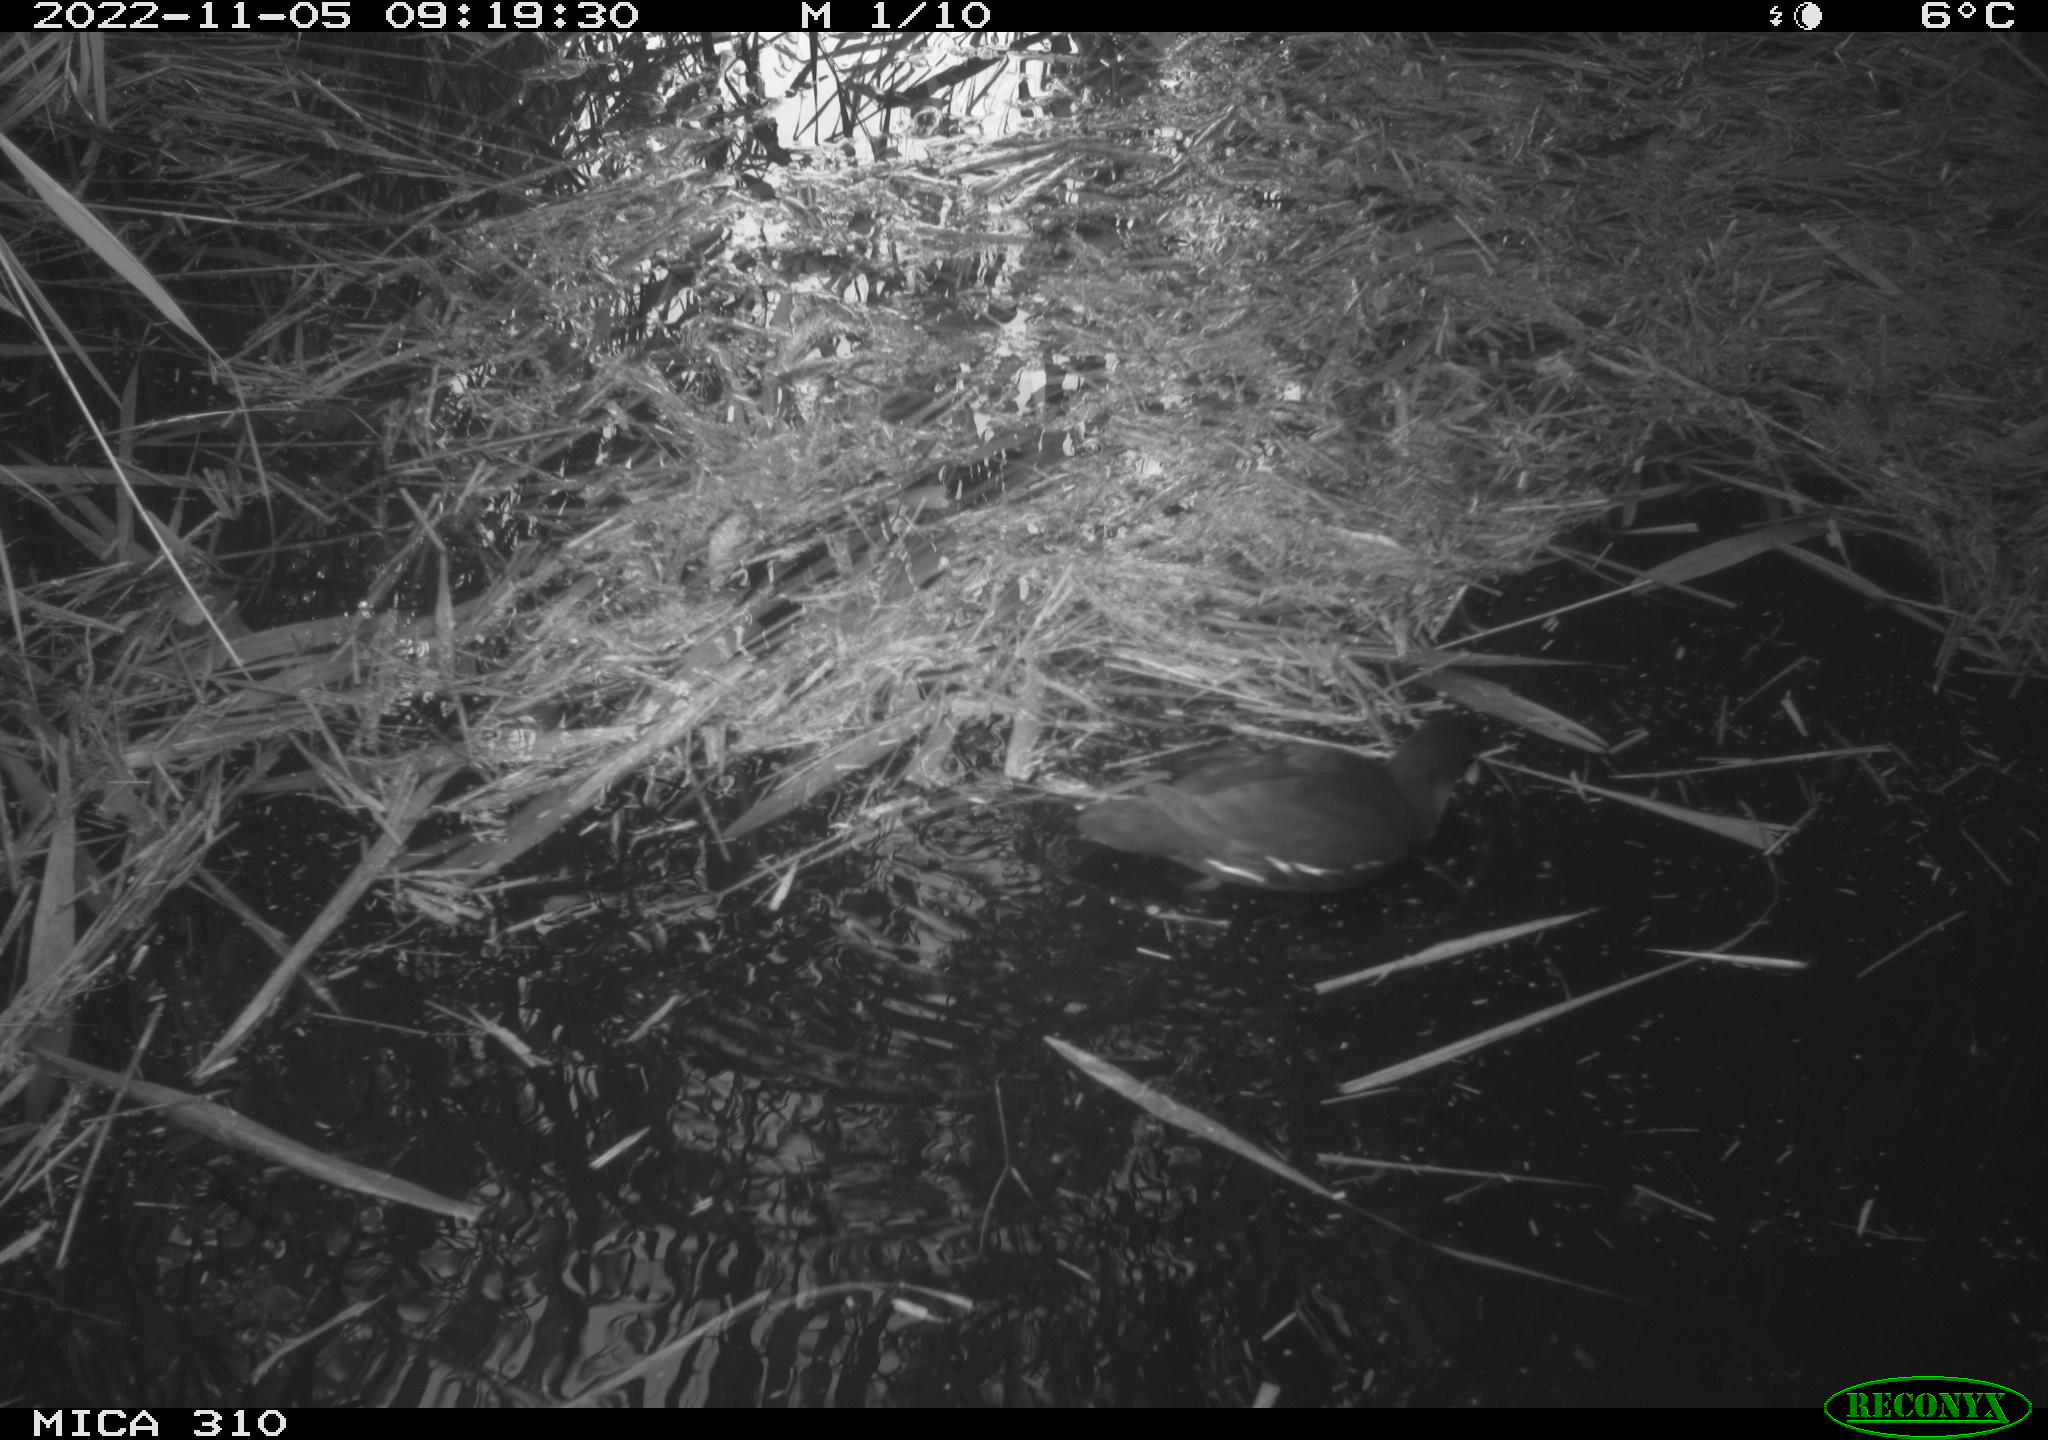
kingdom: Animalia
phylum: Chordata
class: Aves
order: Gruiformes
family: Rallidae
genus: Gallinula
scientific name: Gallinula chloropus
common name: Common moorhen
